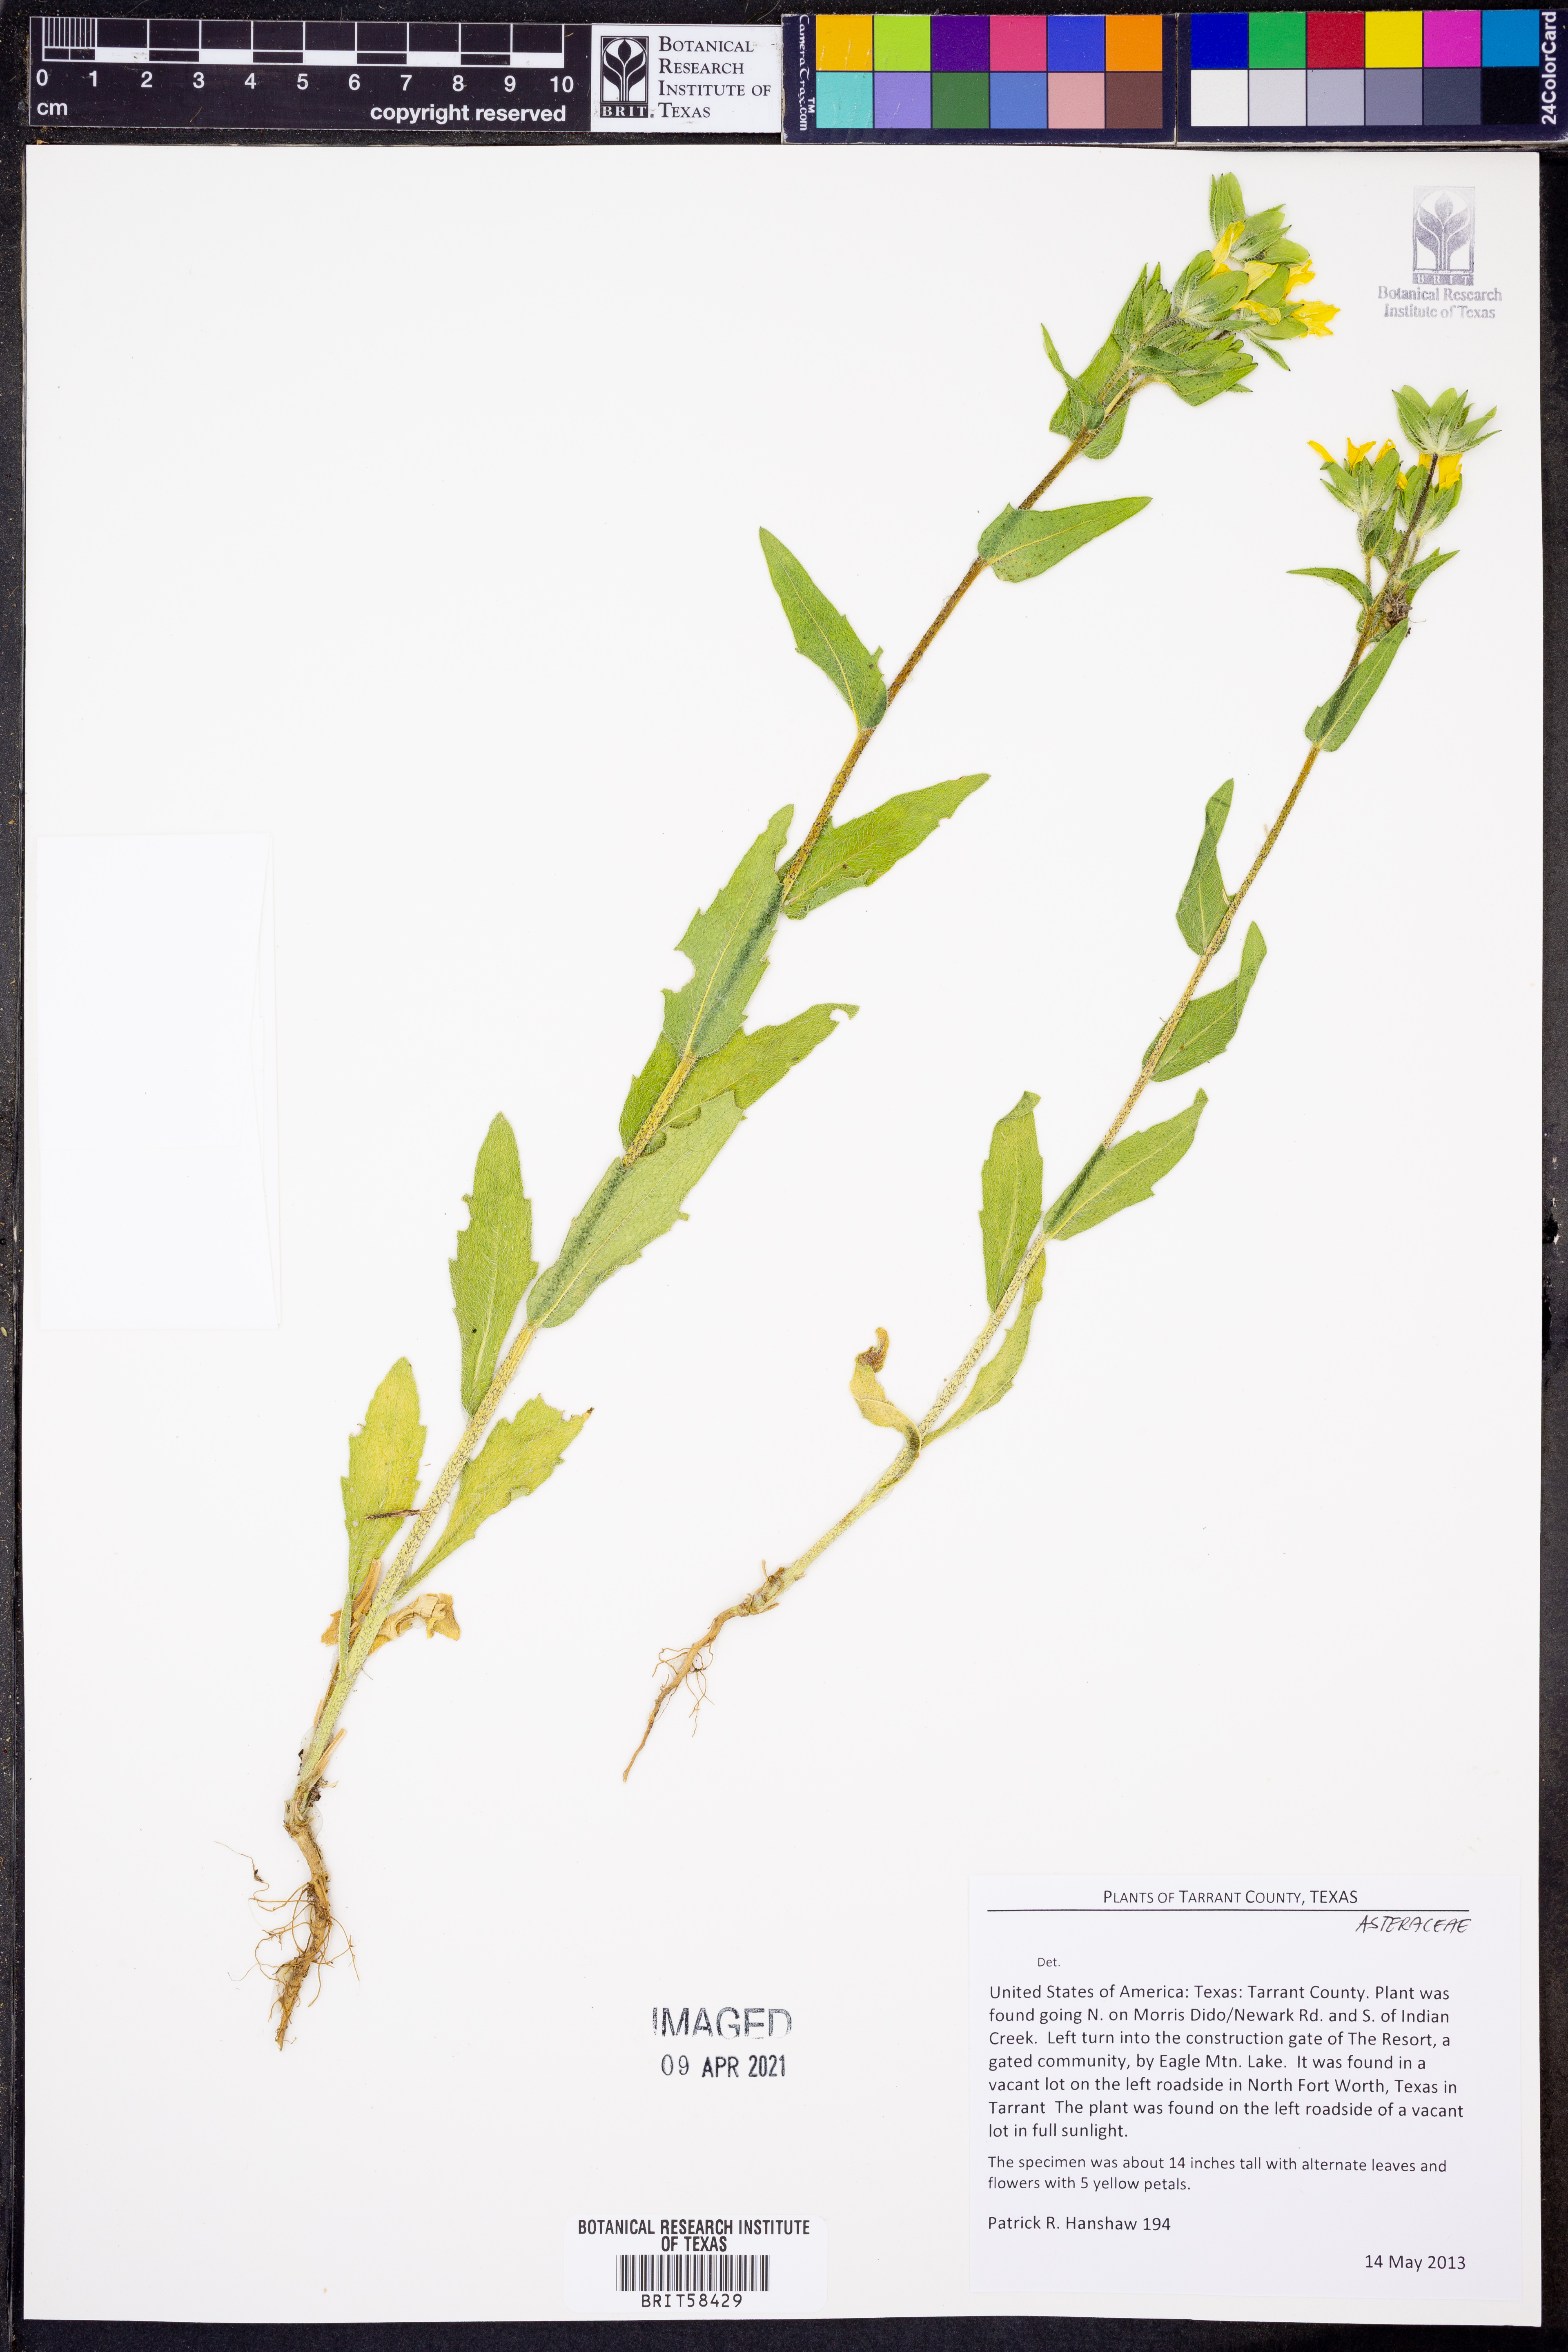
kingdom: Plantae
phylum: Tracheophyta
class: Magnoliopsida
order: Asterales
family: Asteraceae
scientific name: Asteraceae
